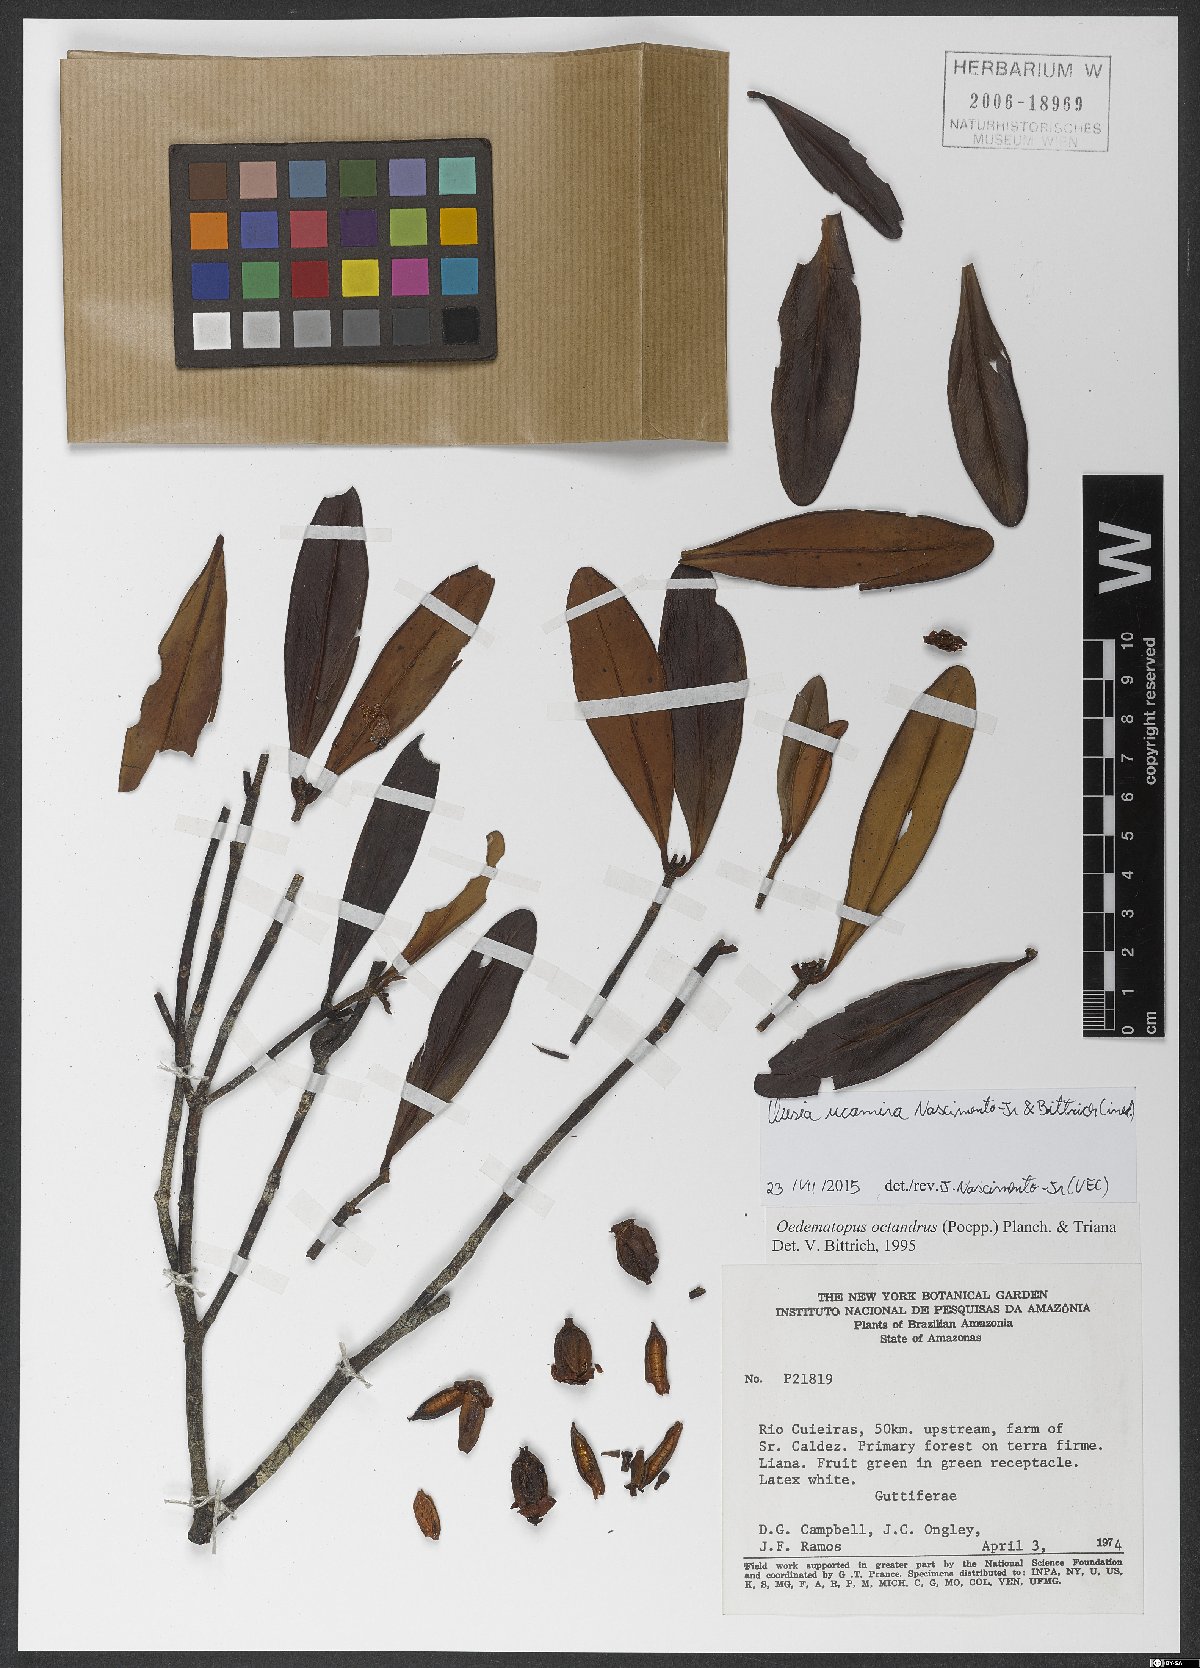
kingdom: Plantae
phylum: Tracheophyta
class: Magnoliopsida
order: Malpighiales
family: Clusiaceae
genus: Clusia
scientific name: Clusia octandra
